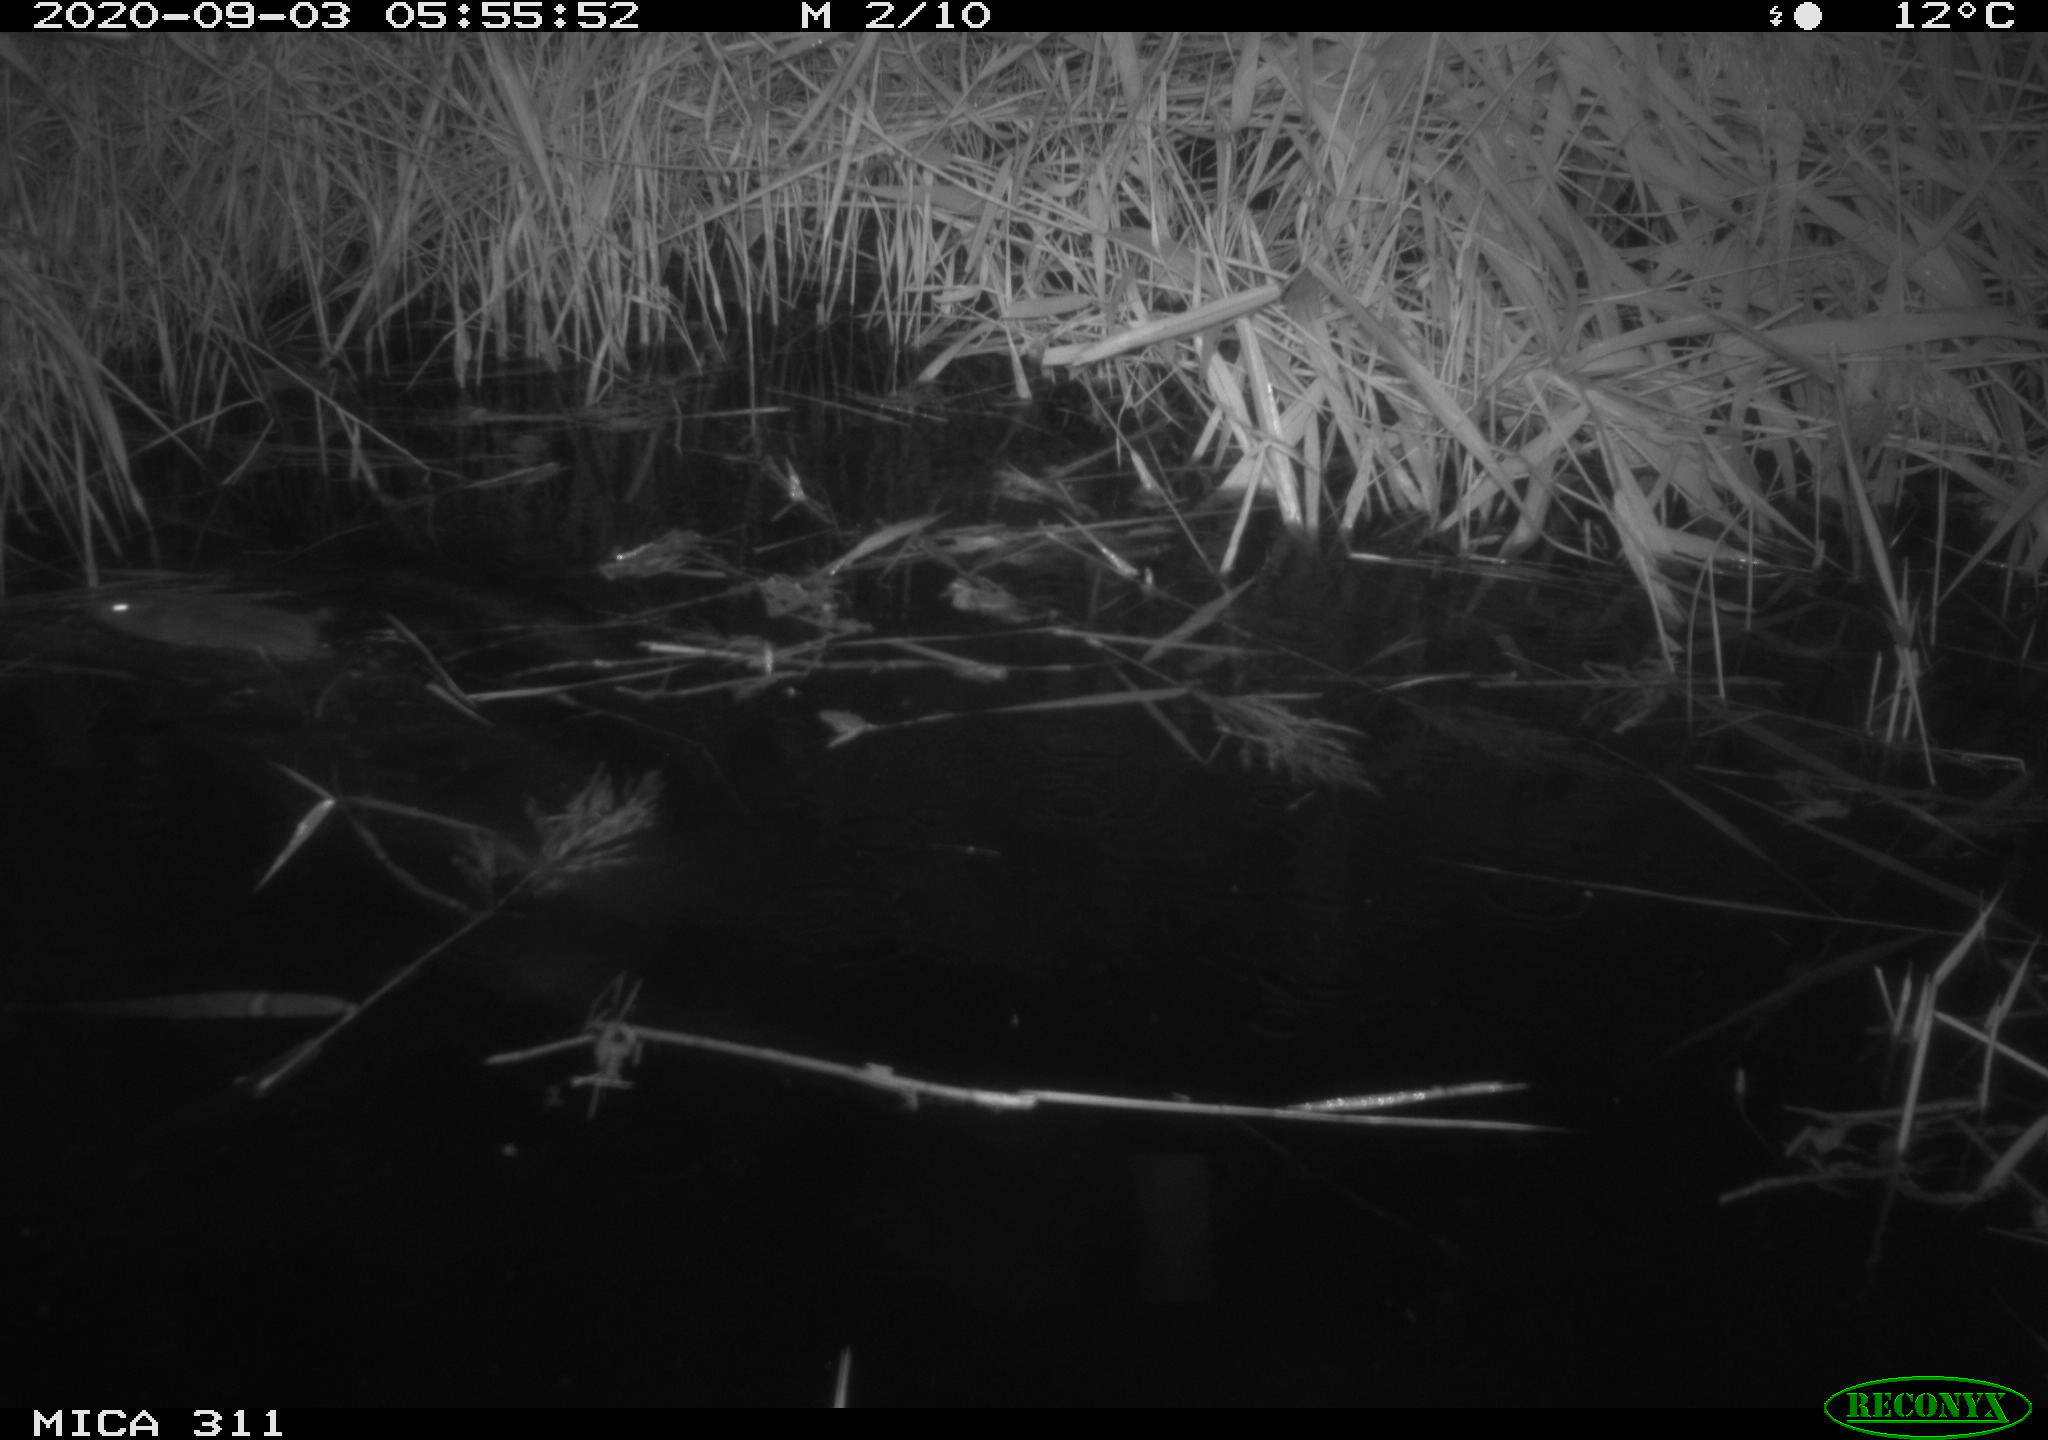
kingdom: Animalia
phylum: Chordata
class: Mammalia
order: Rodentia
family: Cricetidae
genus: Ondatra
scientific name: Ondatra zibethicus
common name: Muskrat
